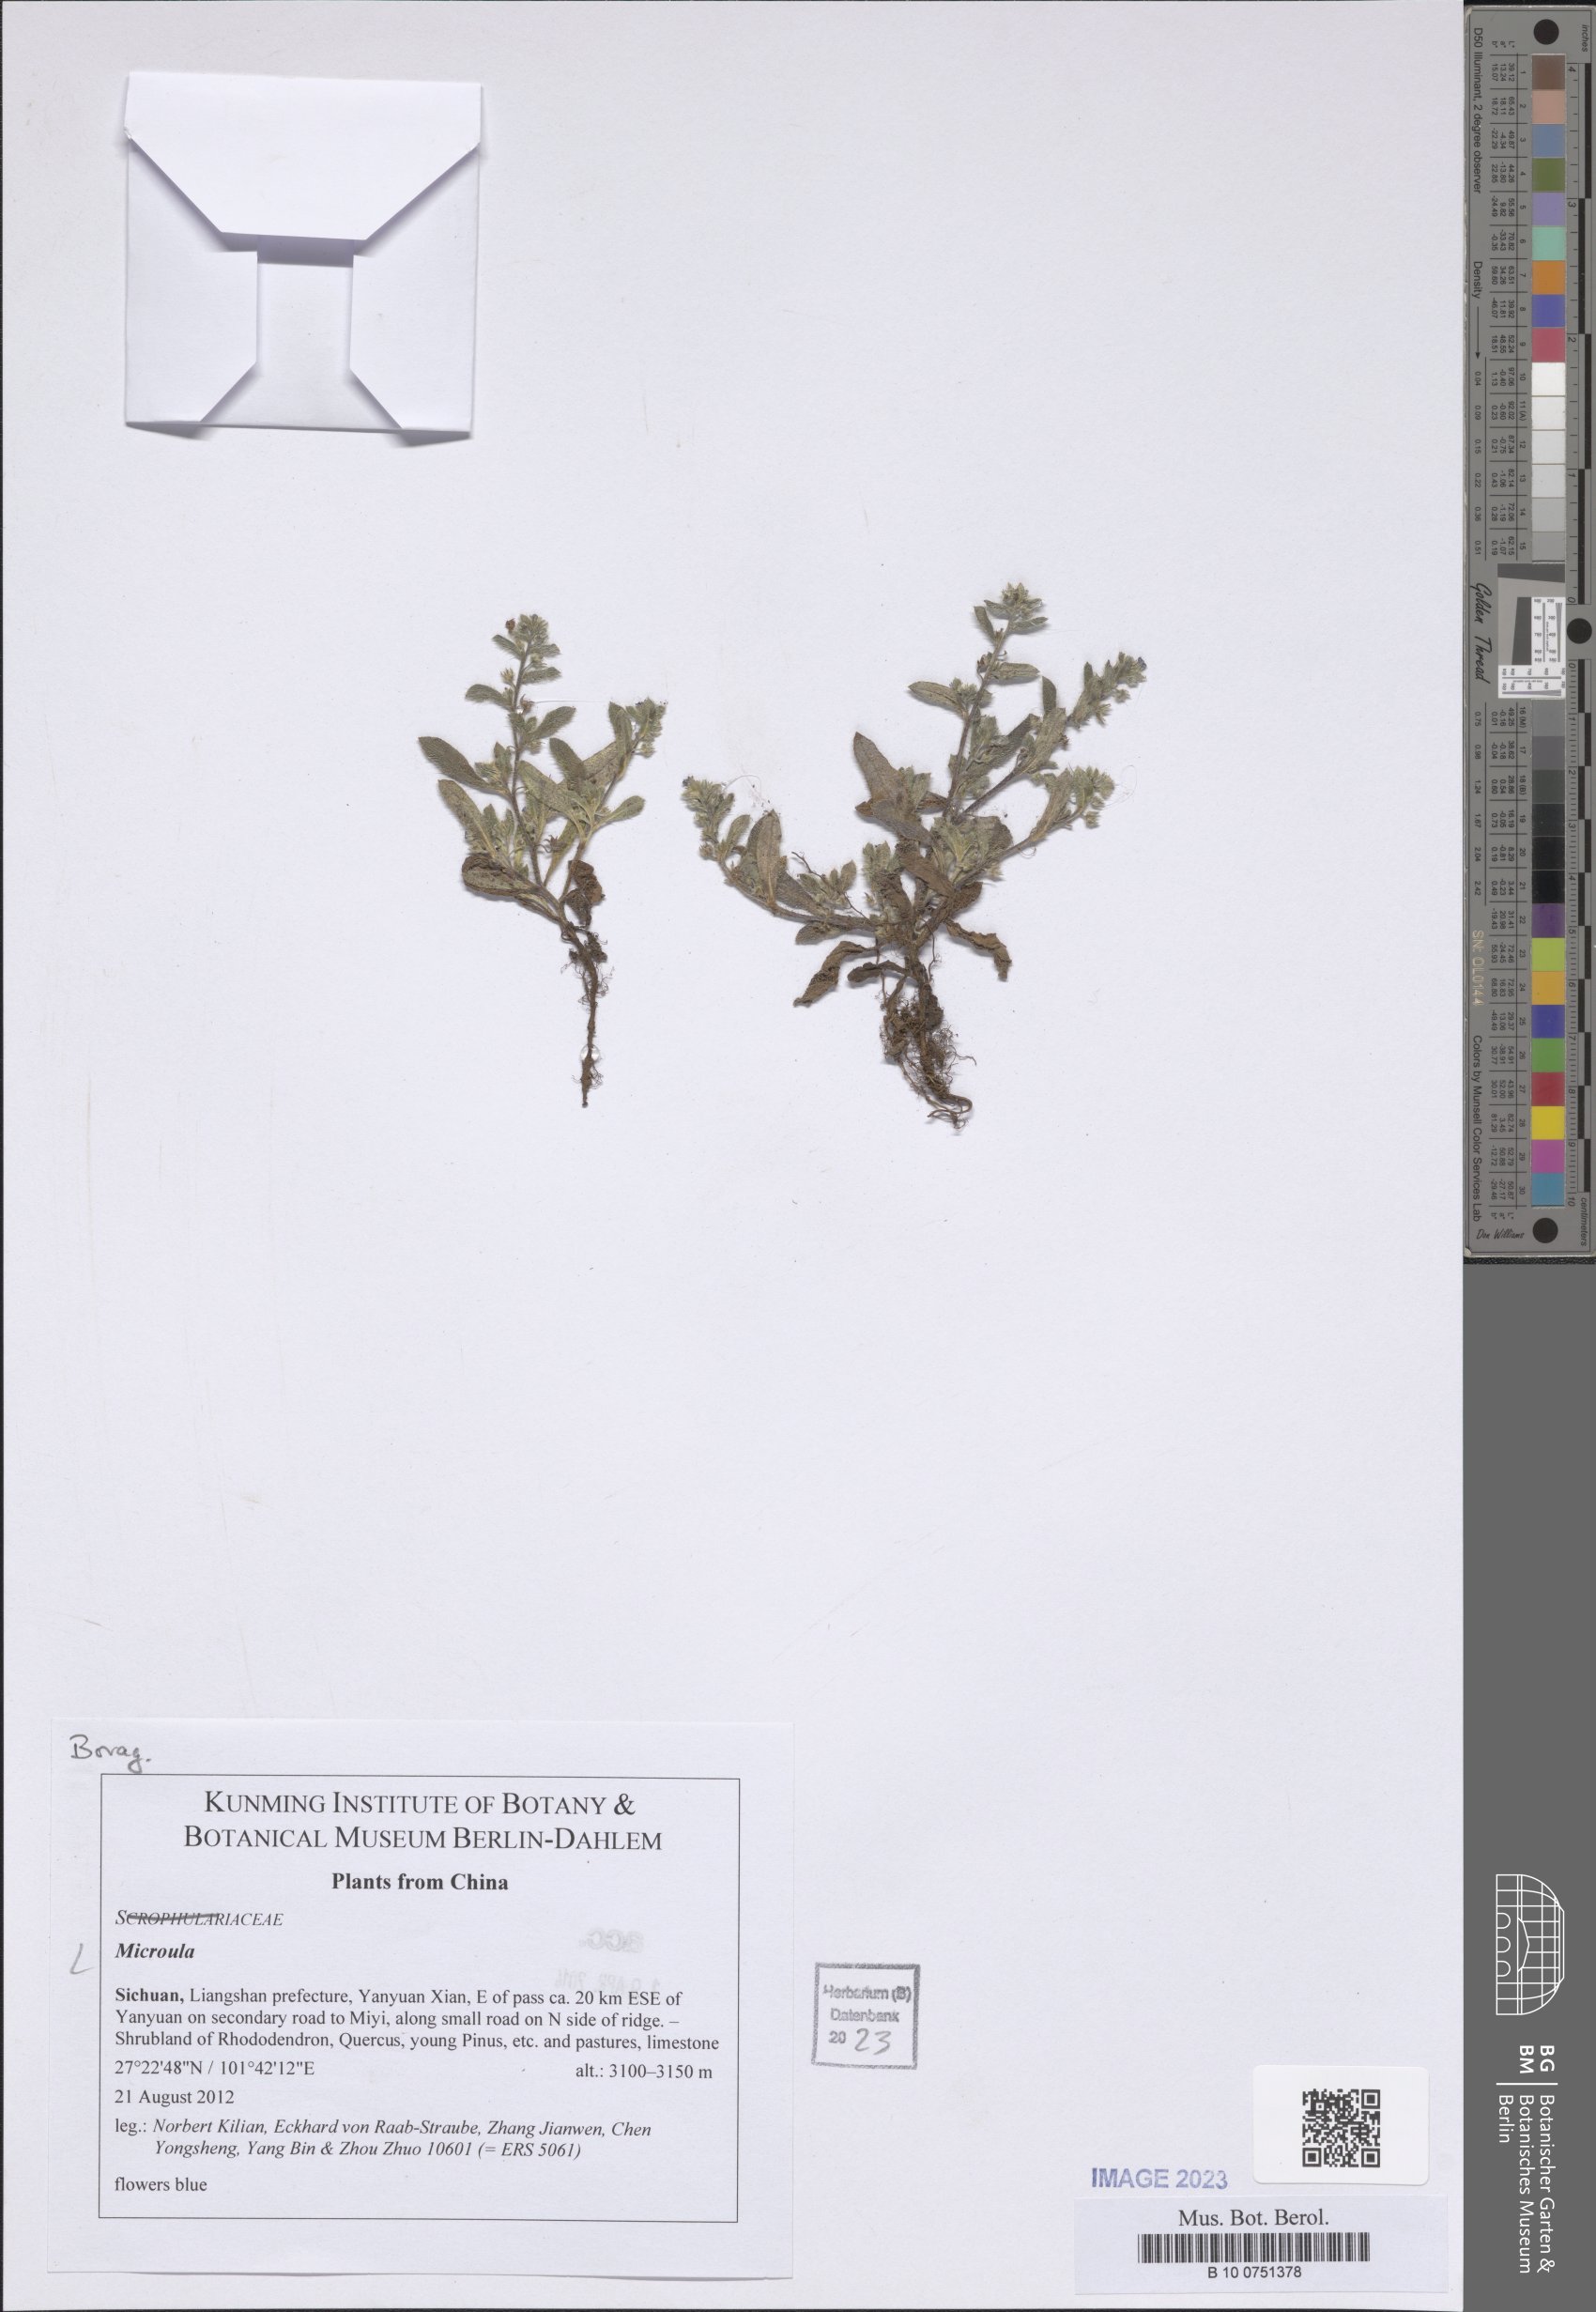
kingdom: Plantae
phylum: Tracheophyta
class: Magnoliopsida
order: Boraginales
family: Boraginaceae
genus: Microula
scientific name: Microula
